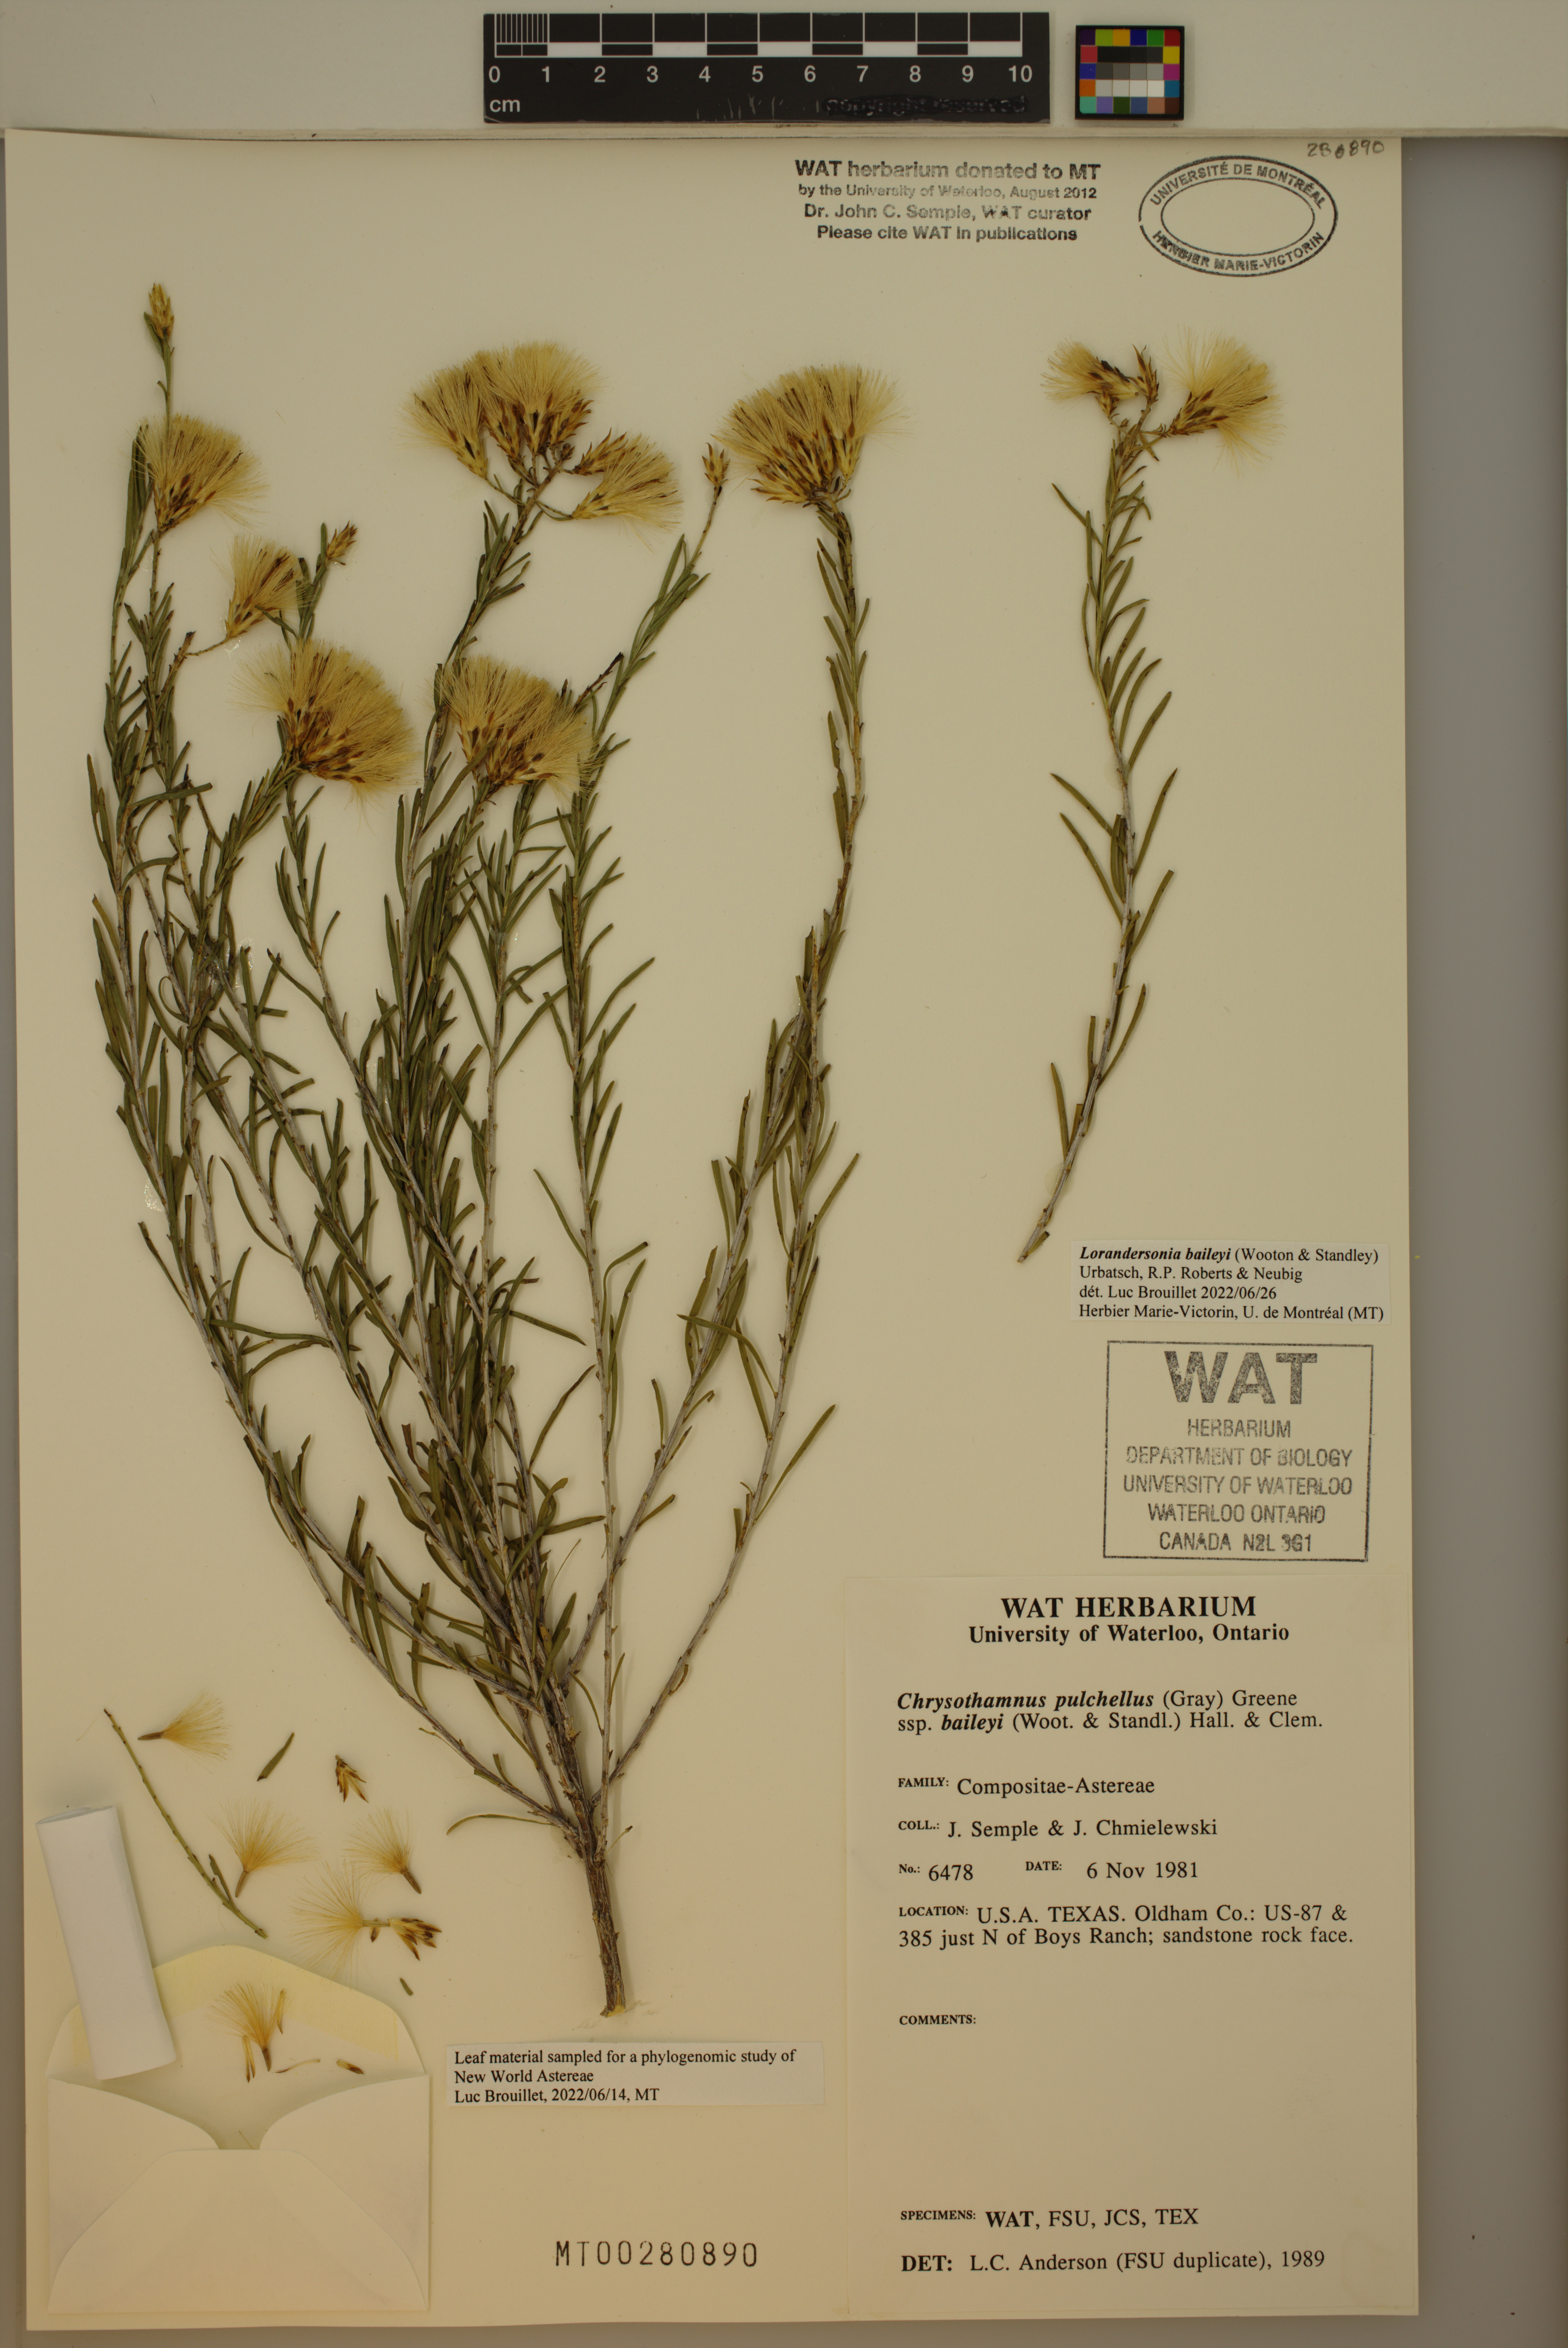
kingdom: Plantae
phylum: Tracheophyta
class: Magnoliopsida
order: Asterales
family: Asteraceae
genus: Lorandersonia
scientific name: Lorandersonia baileyi
